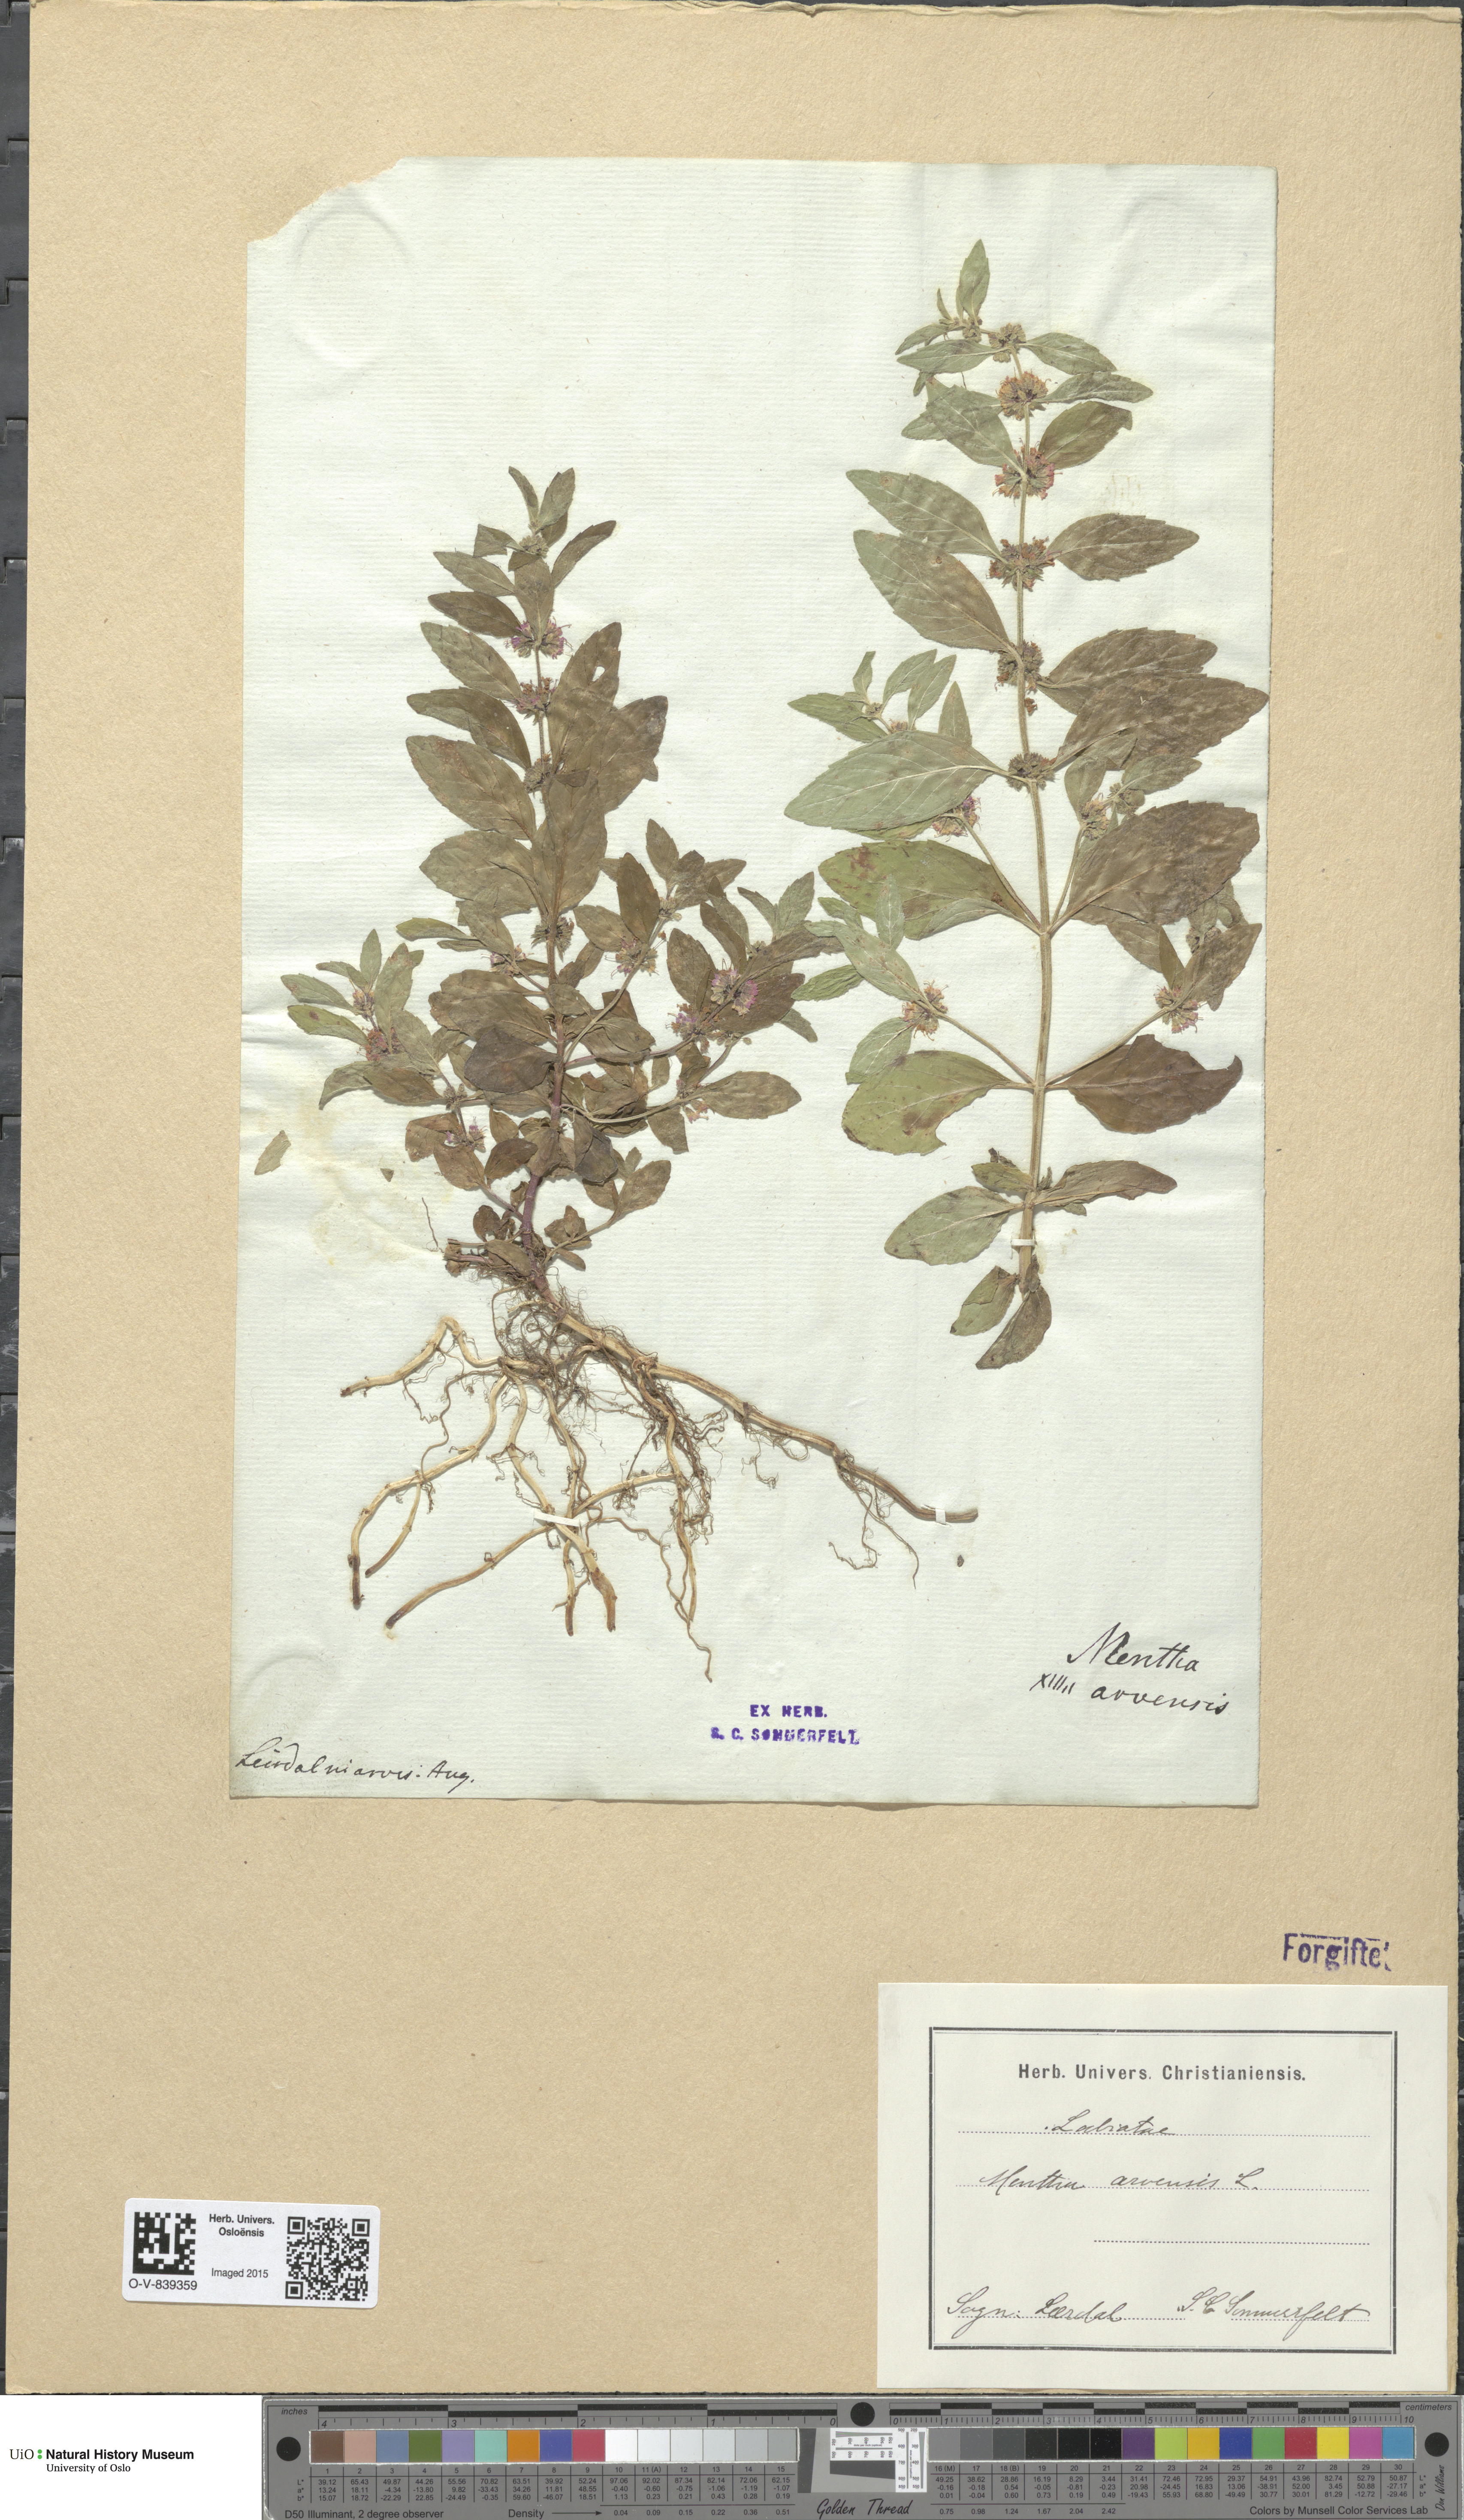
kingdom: Plantae
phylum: Tracheophyta
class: Magnoliopsida
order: Lamiales
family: Lamiaceae
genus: Mentha
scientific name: Mentha arvensis
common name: Corn mint
